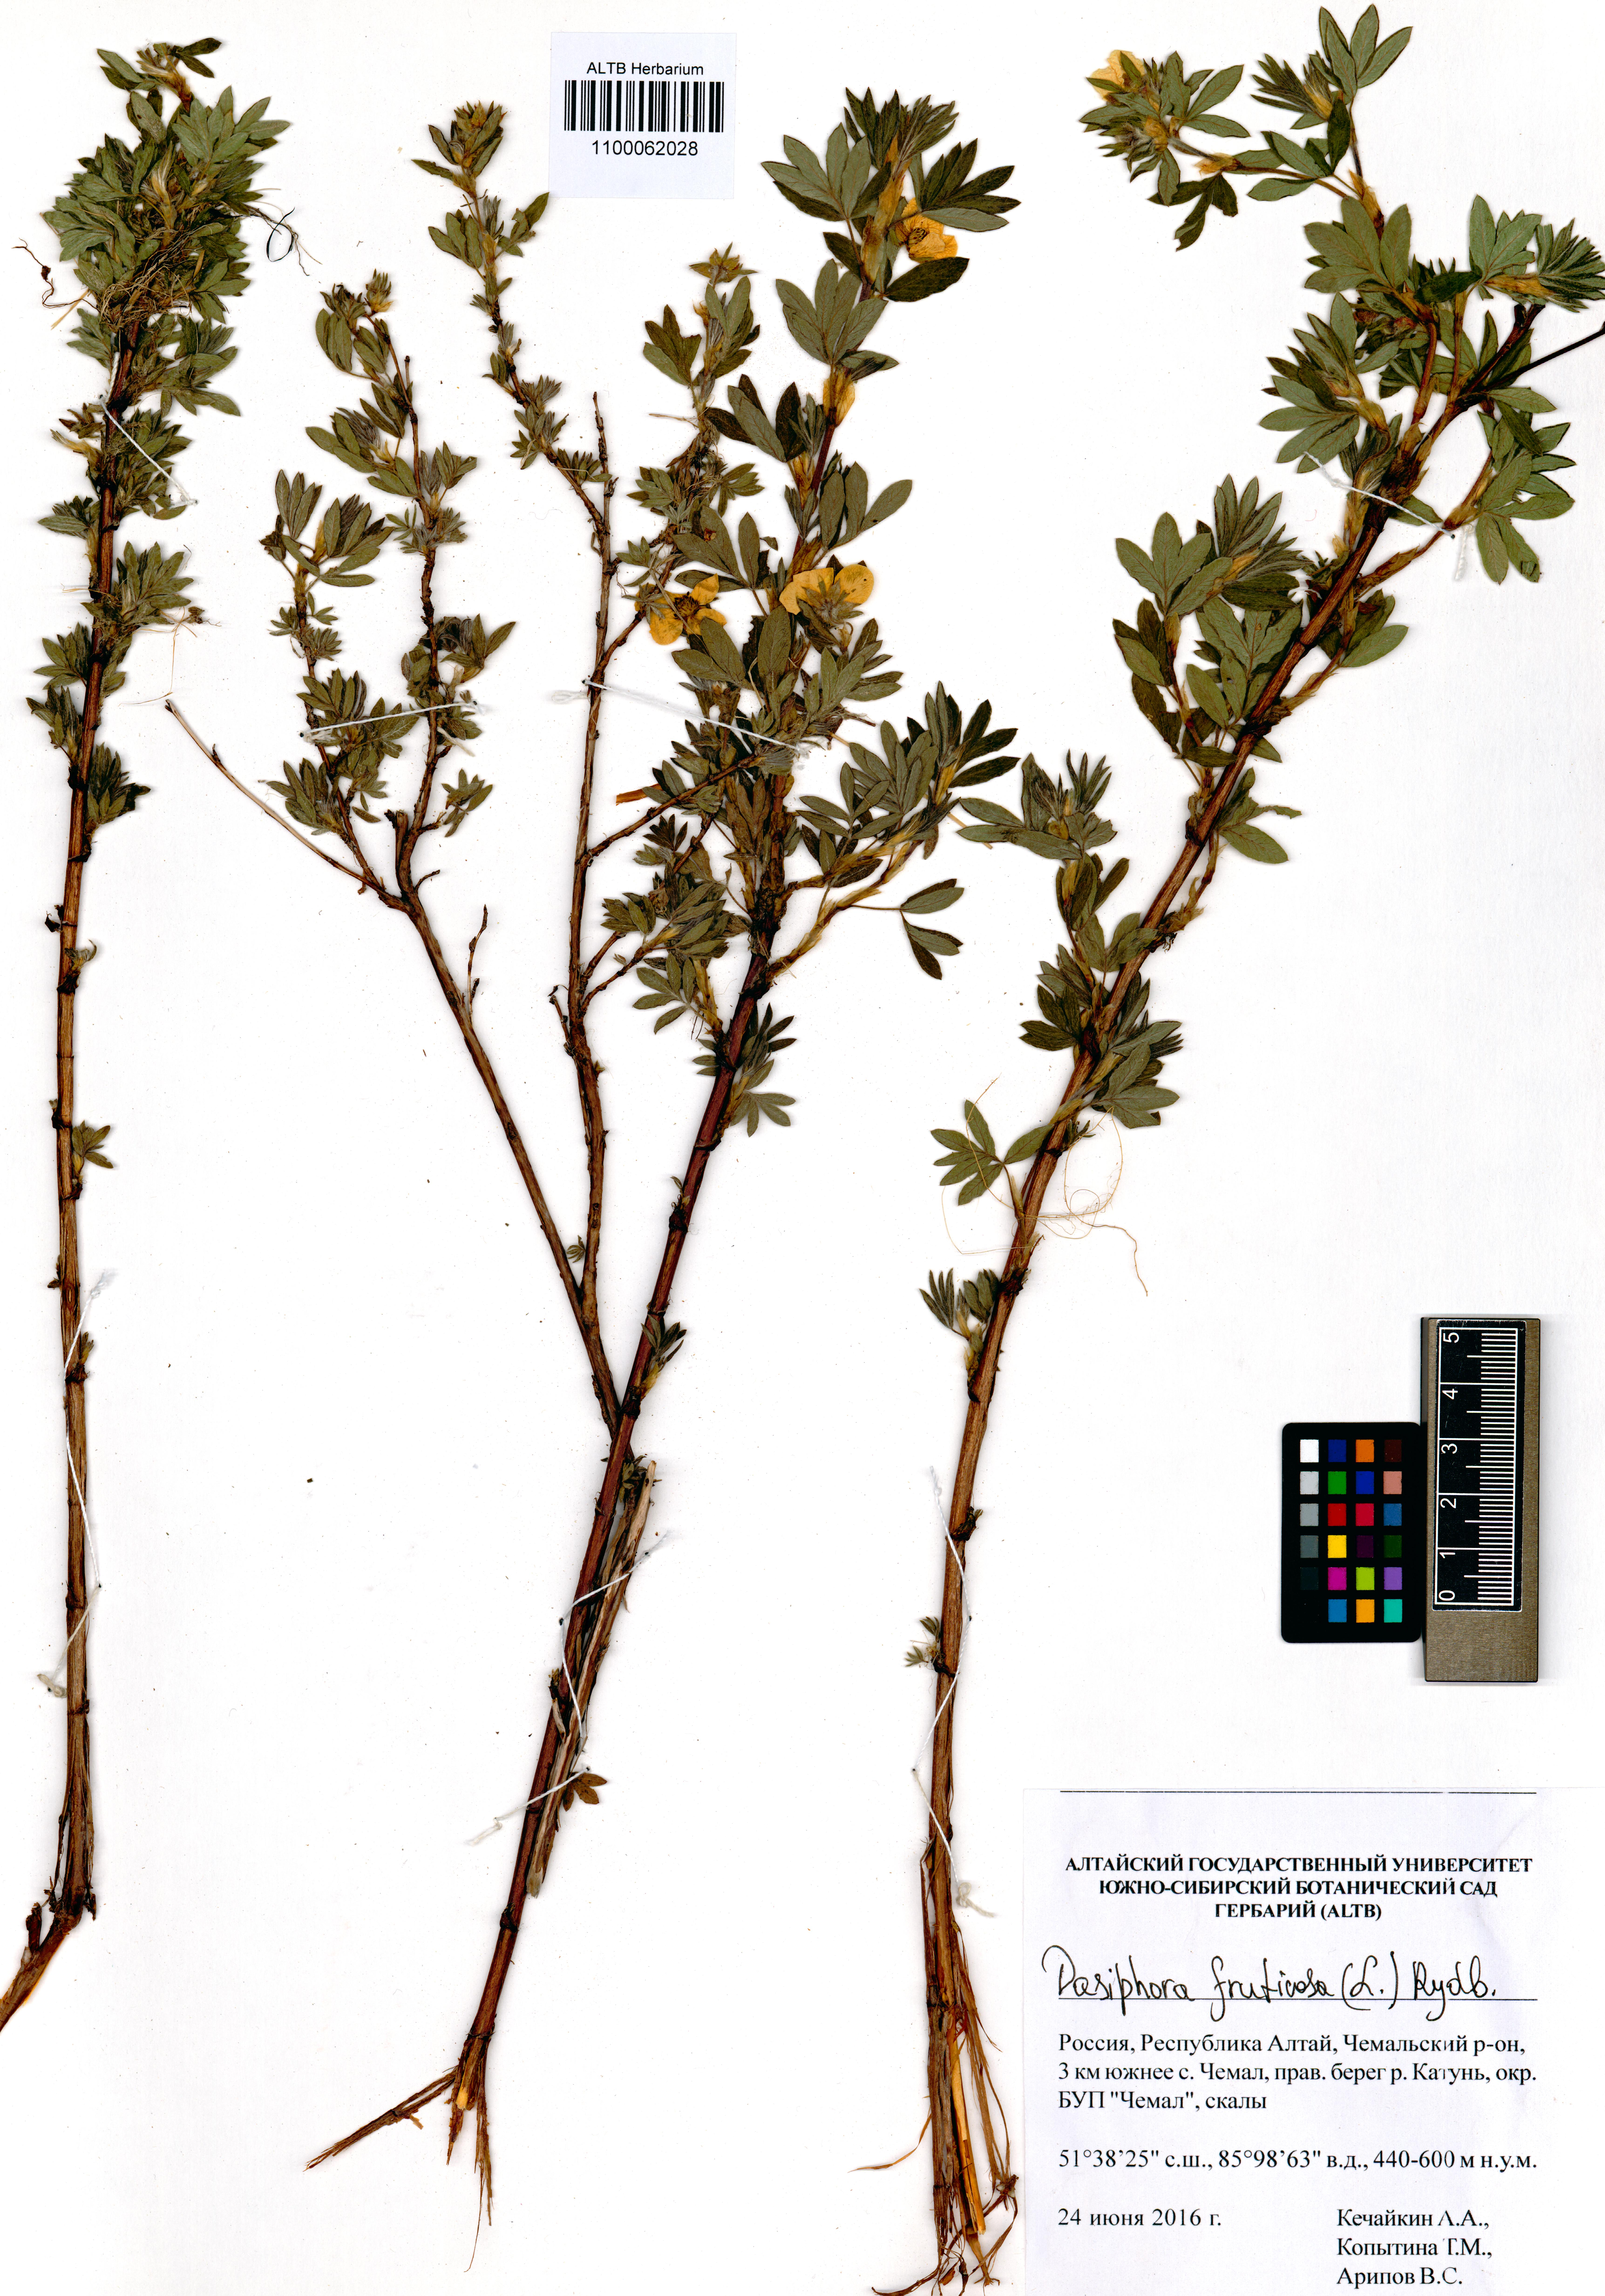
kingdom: Plantae
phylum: Tracheophyta
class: Magnoliopsida
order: Rosales
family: Rosaceae
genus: Dasiphora
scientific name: Dasiphora fruticosa
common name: Shrubby cinquefoil
